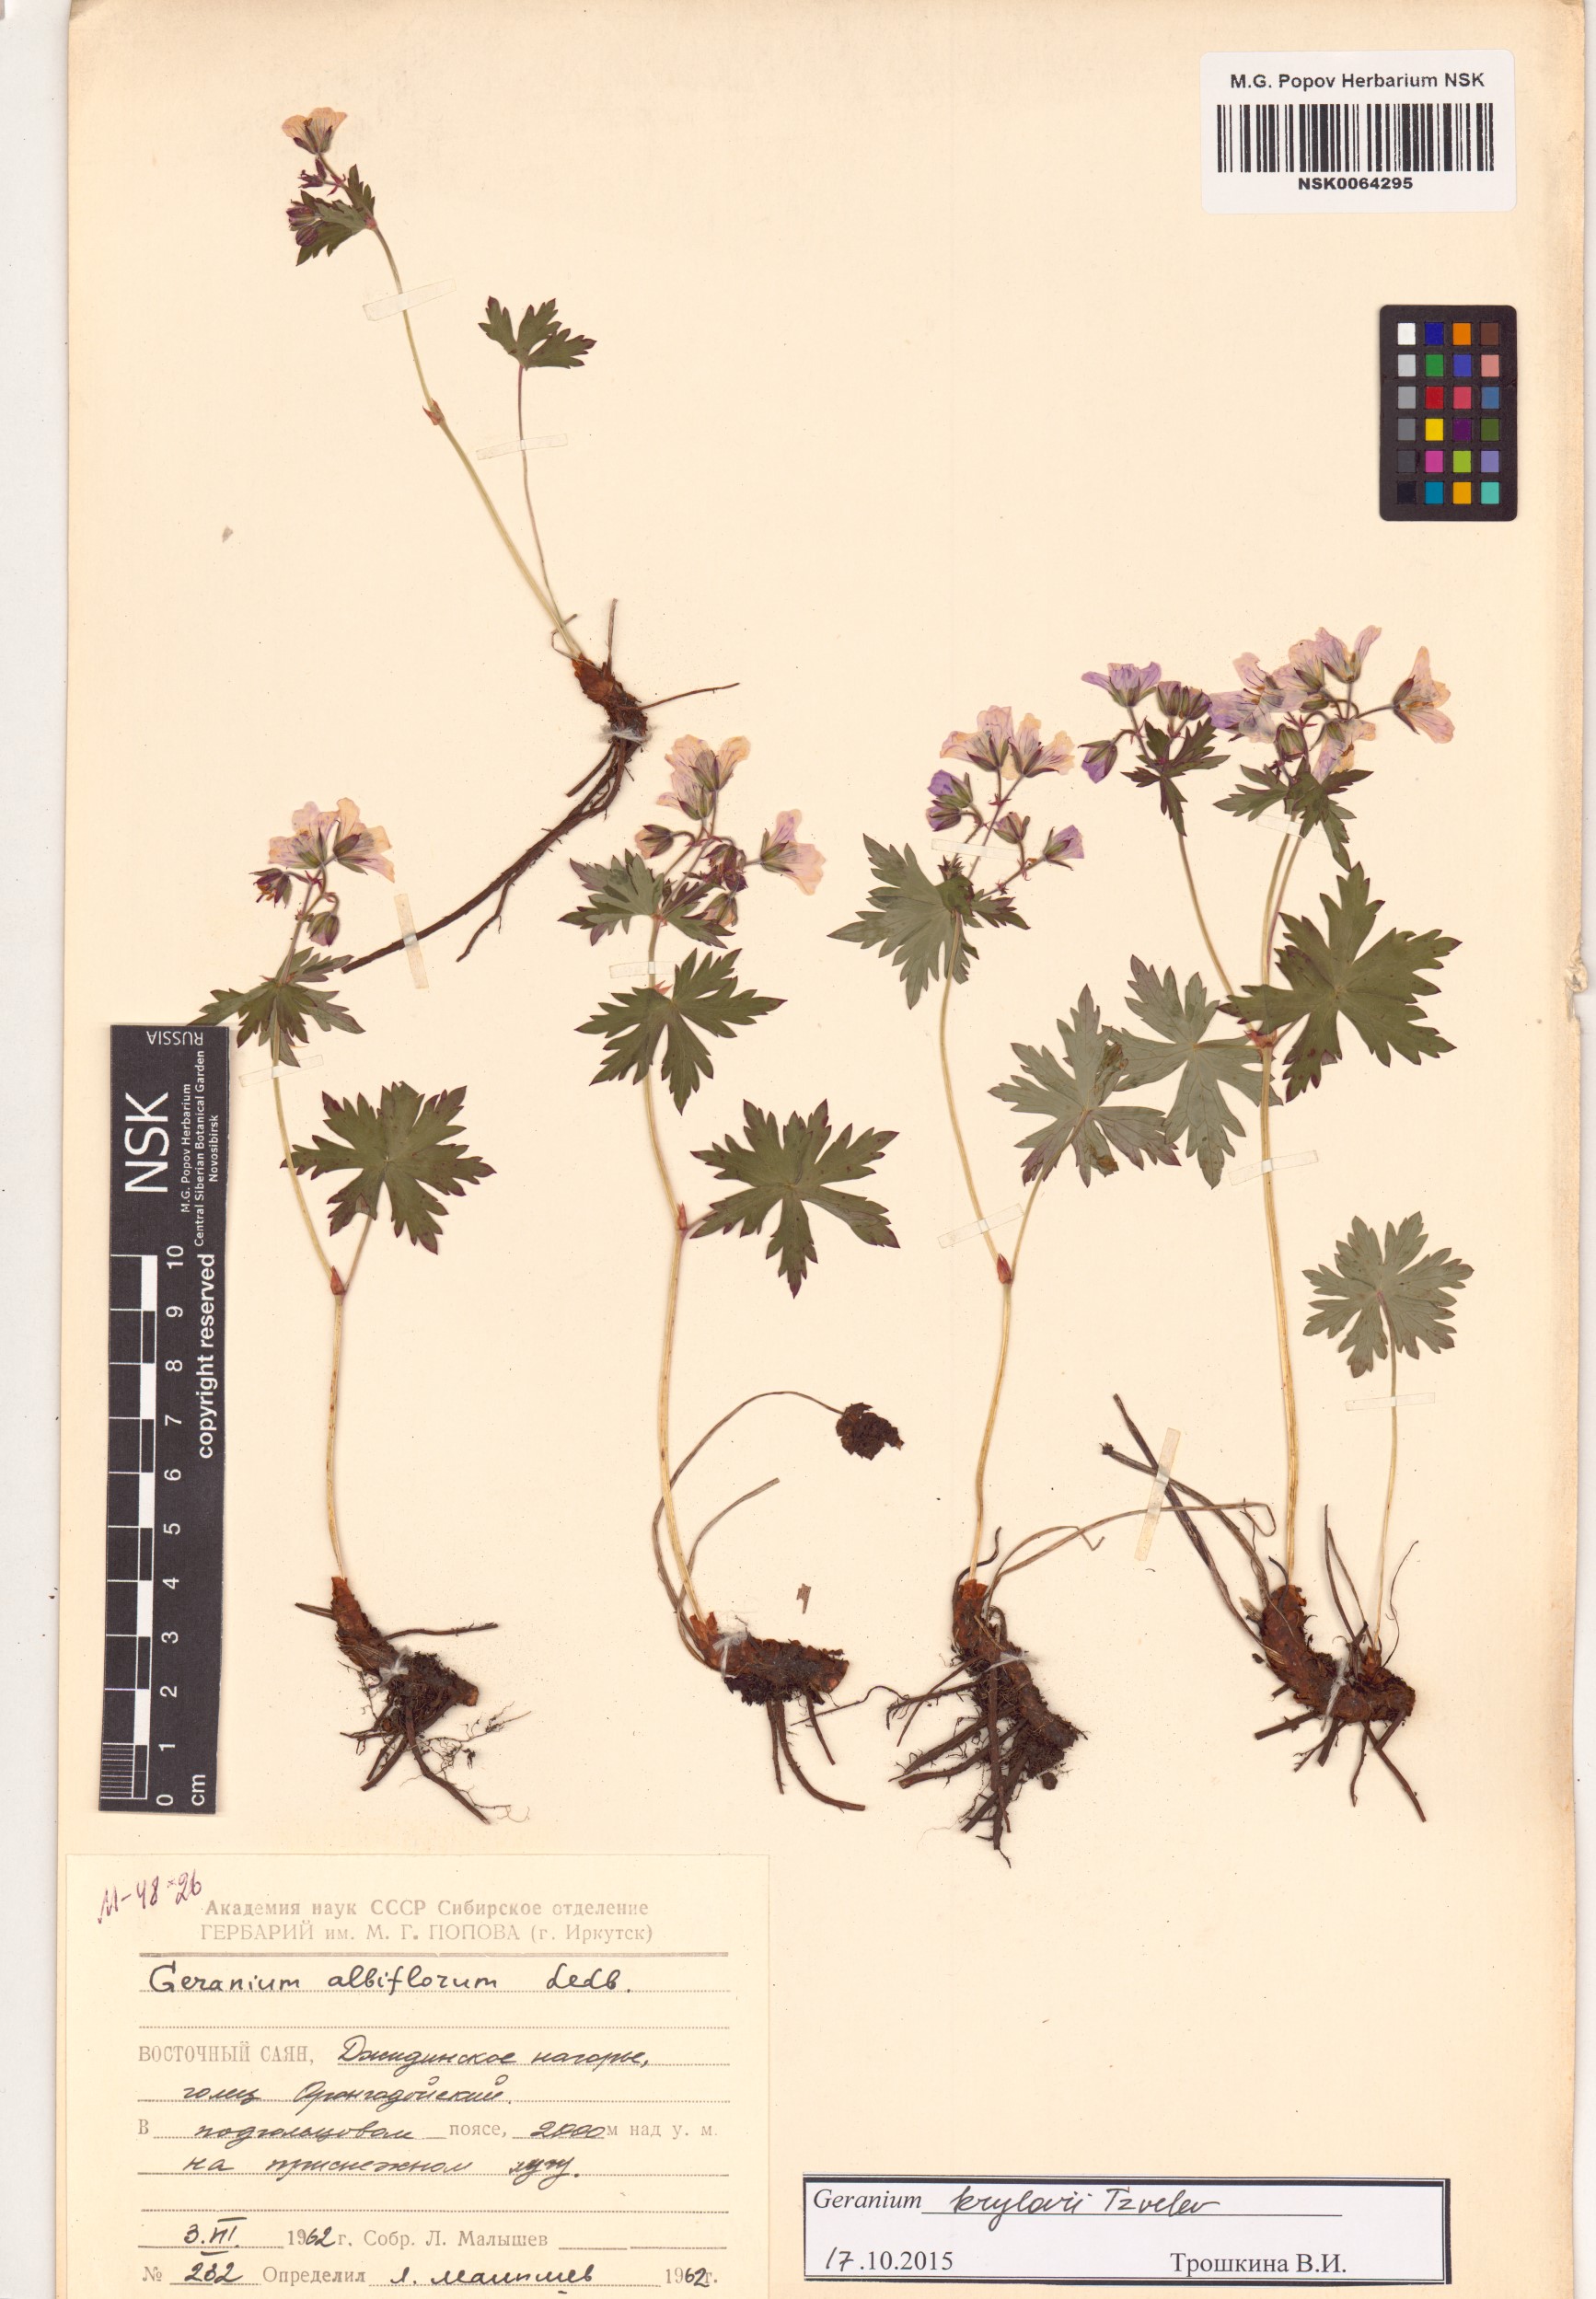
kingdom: Plantae
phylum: Tracheophyta
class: Magnoliopsida
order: Geraniales
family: Geraniaceae
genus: Geranium
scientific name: Geranium sylvaticum
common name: Wood crane's-bill
